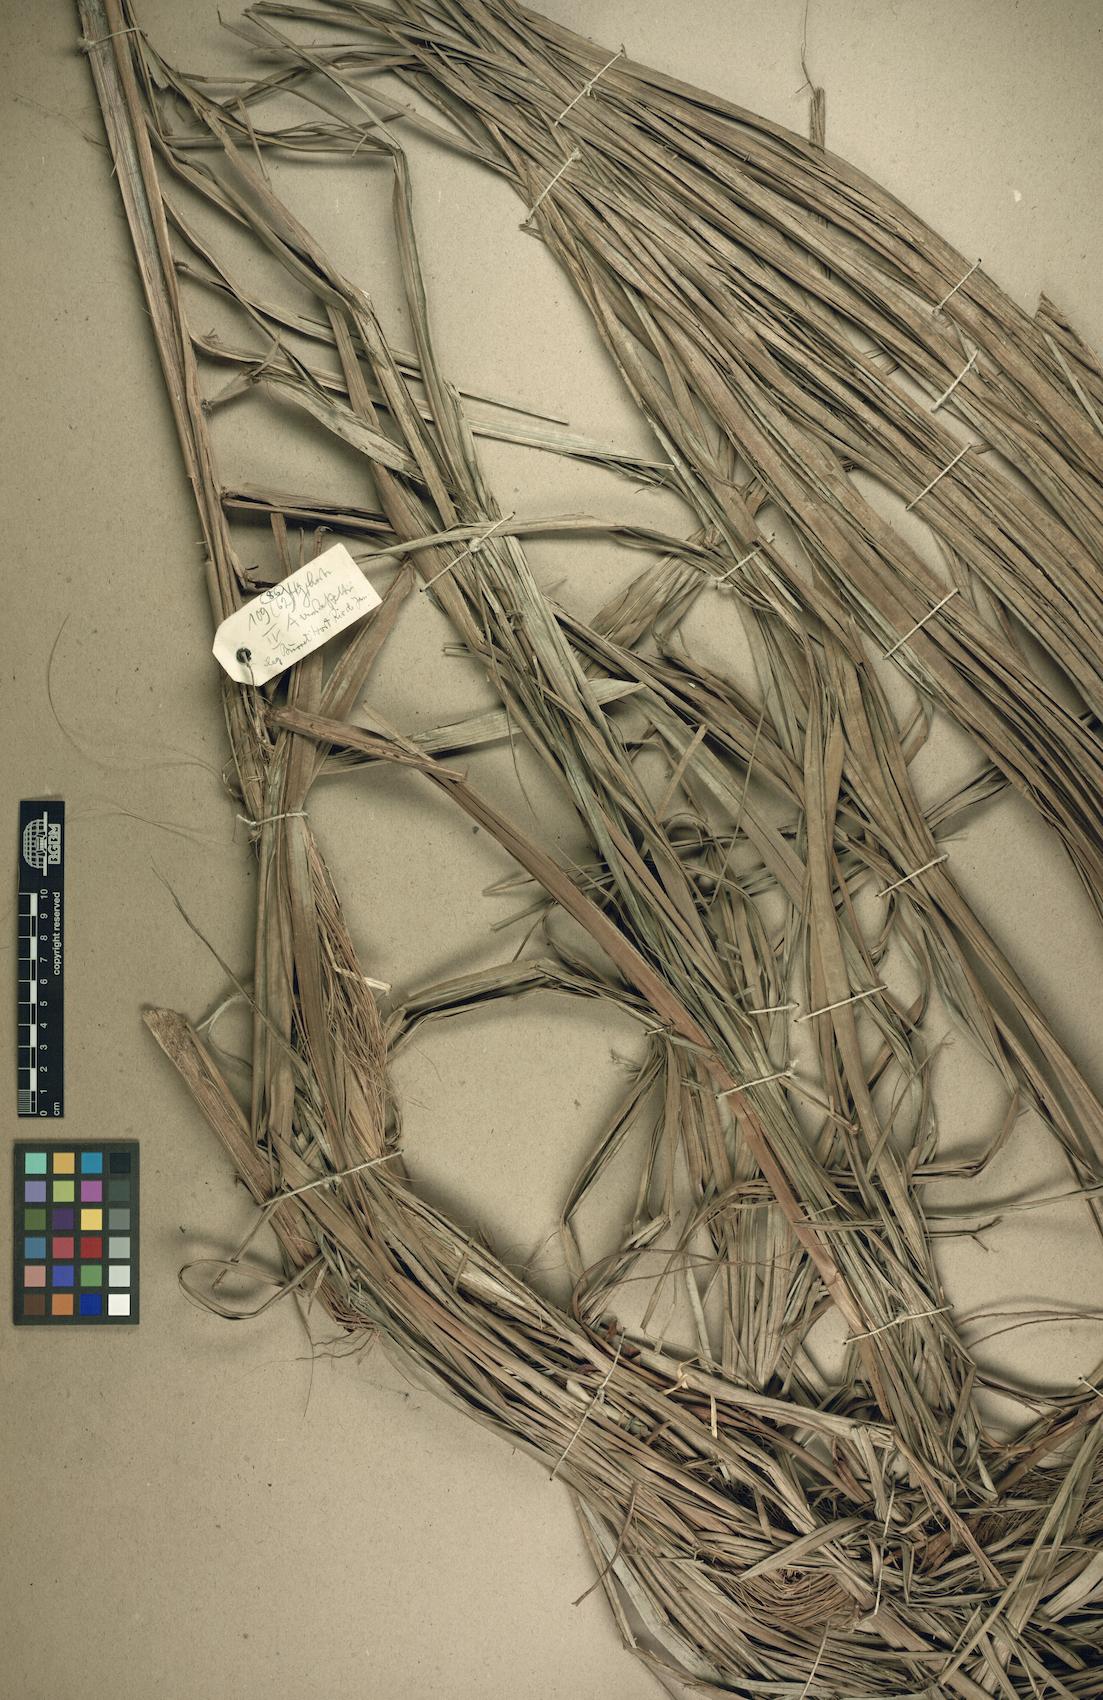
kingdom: Plantae
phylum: Tracheophyta
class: Liliopsida
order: Arecales
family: Arecaceae
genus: Acanthophoenix
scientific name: Acanthophoenix rubra
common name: Barbel palm
